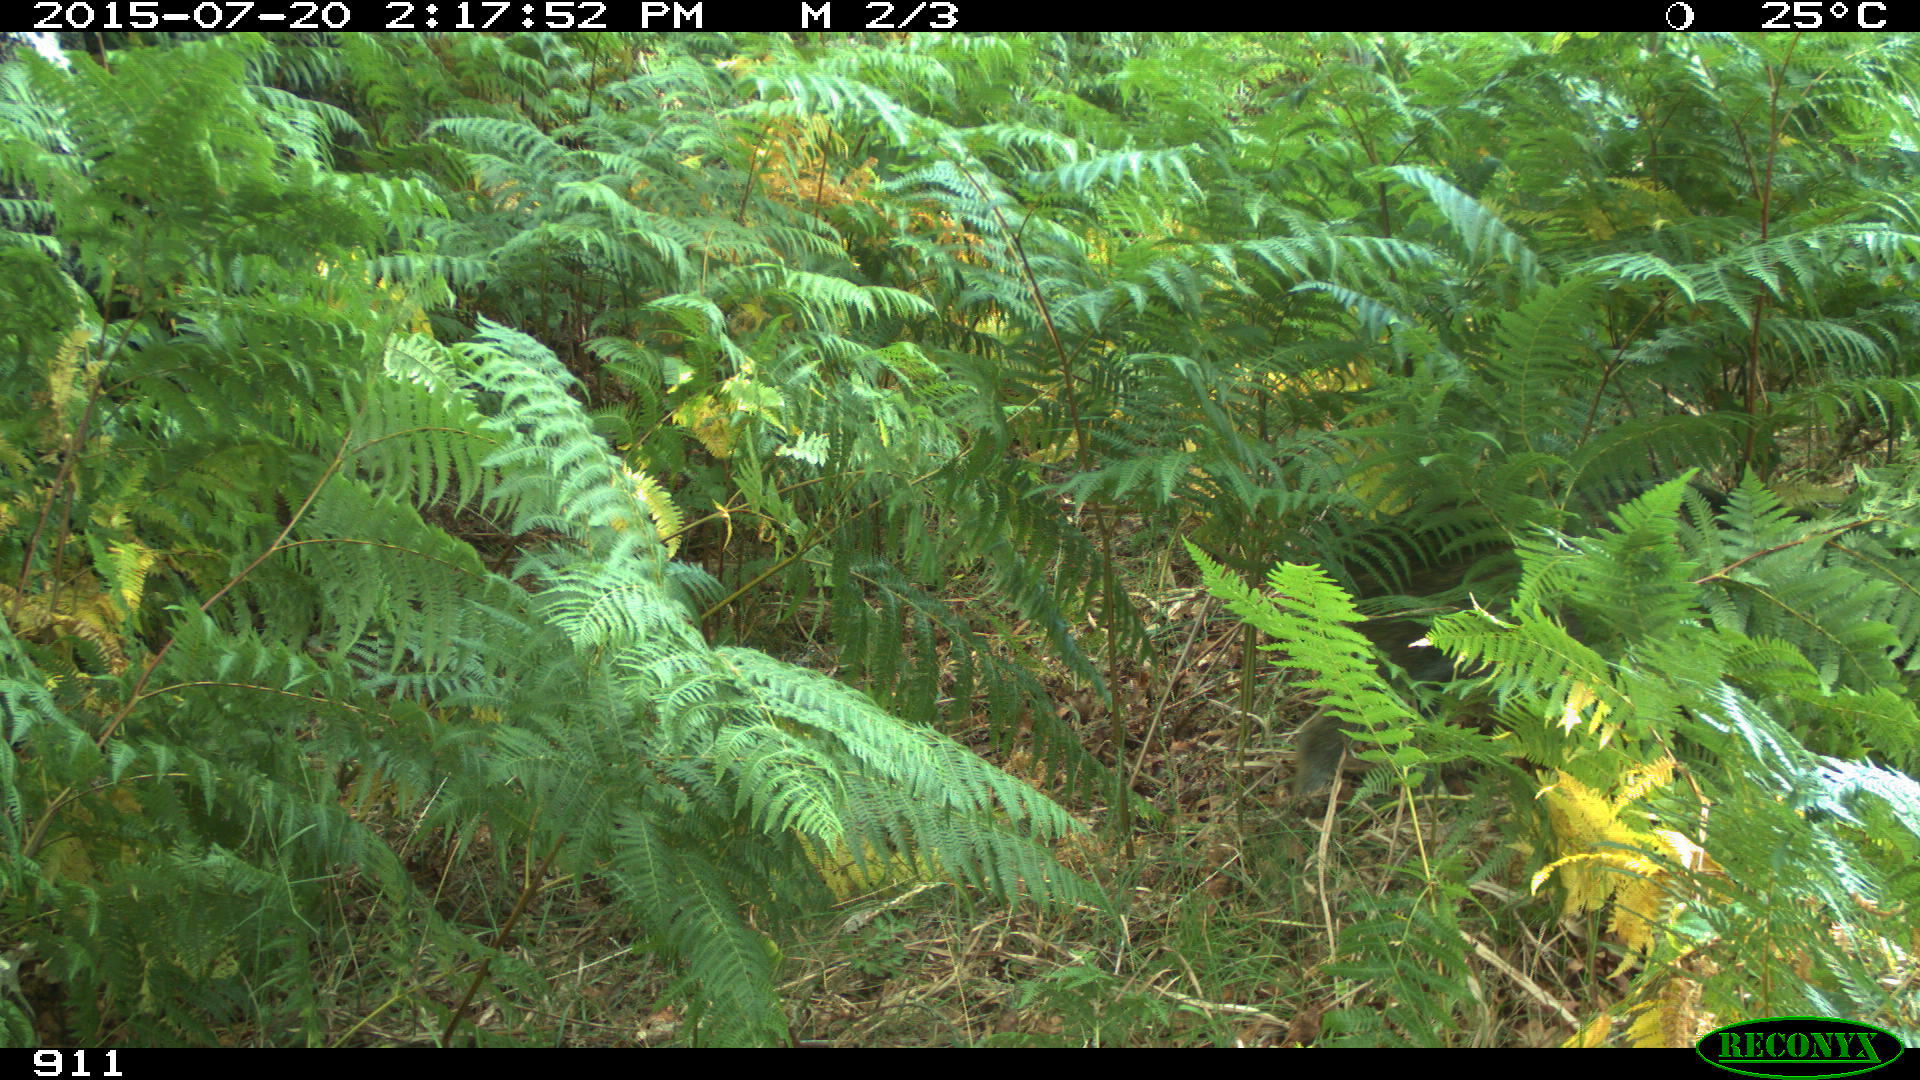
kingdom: Animalia
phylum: Chordata
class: Mammalia
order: Artiodactyla
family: Suidae
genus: Sus
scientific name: Sus scrofa
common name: Wild boar
